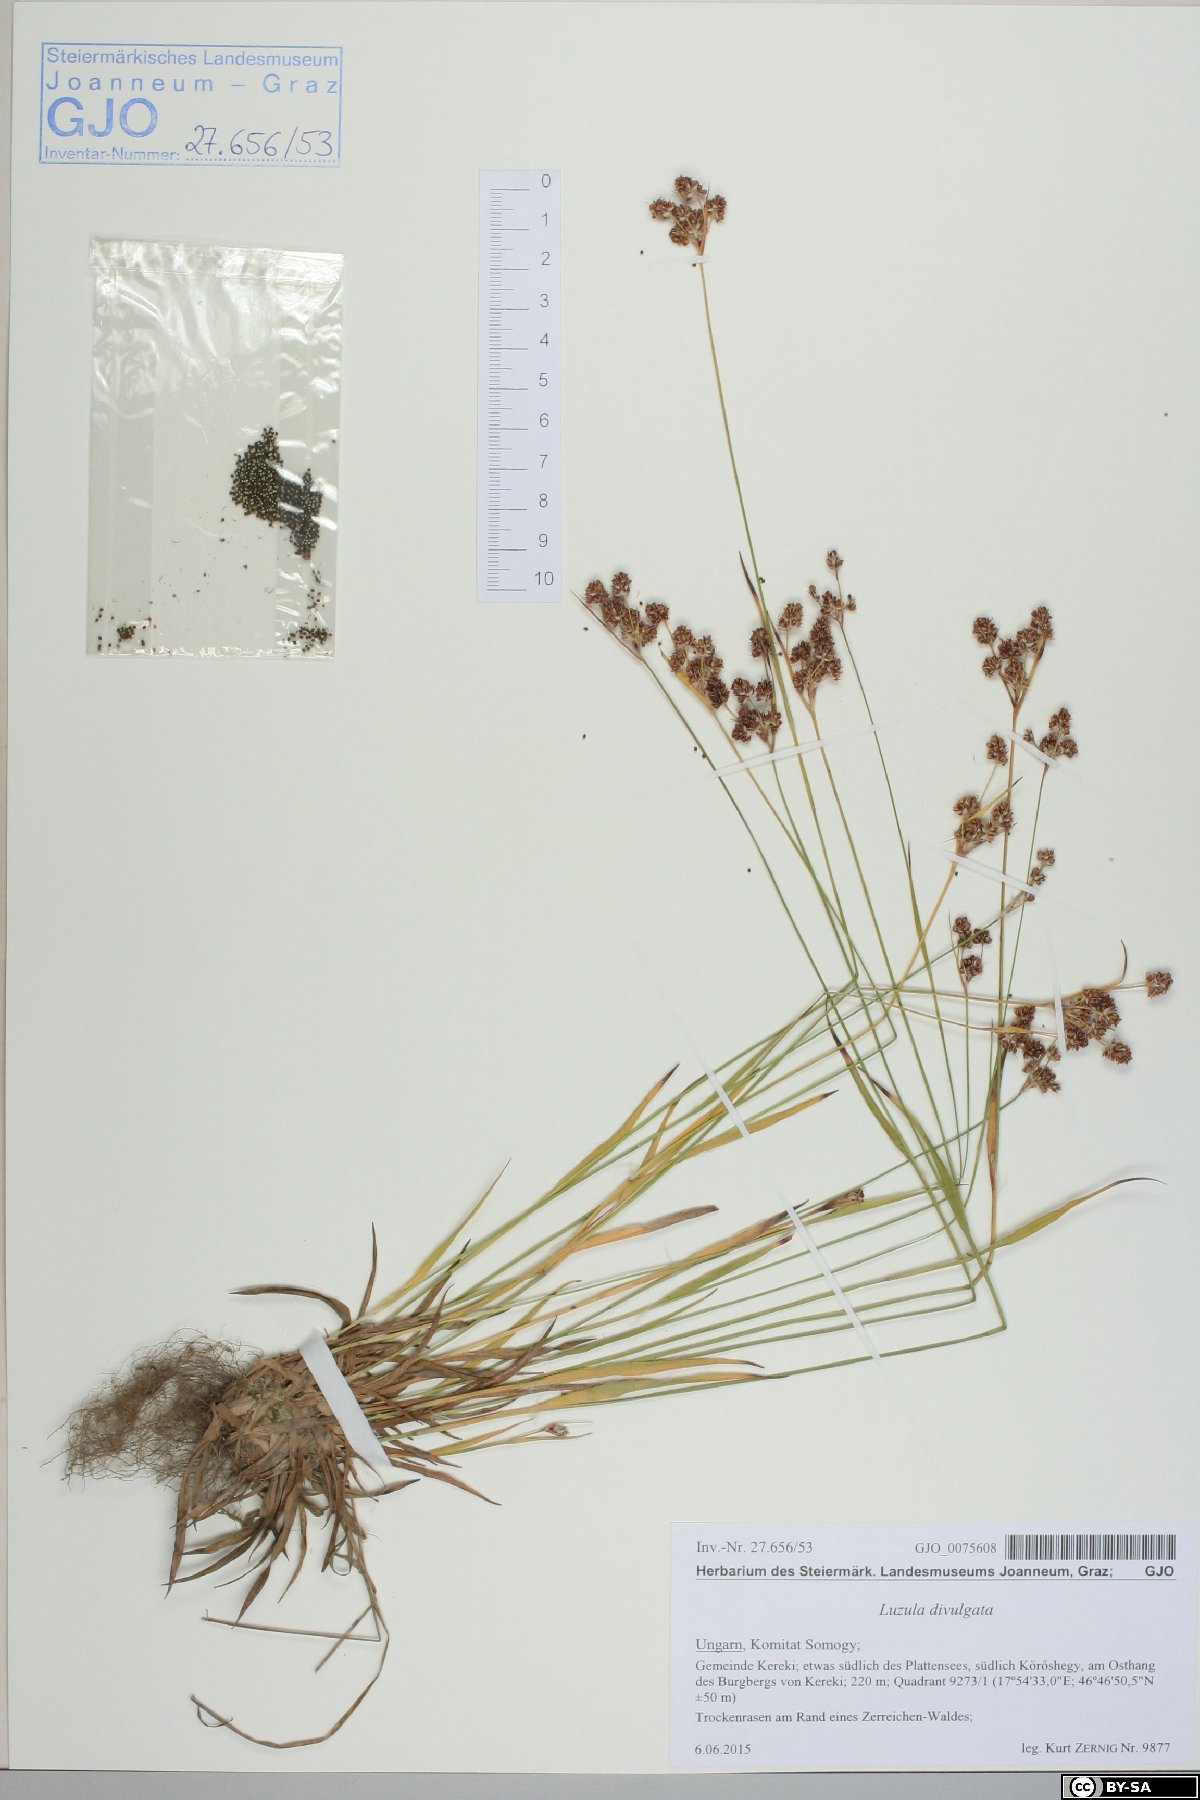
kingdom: Plantae
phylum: Tracheophyta
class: Liliopsida
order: Poales
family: Juncaceae
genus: Luzula
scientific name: Luzula divulgata
